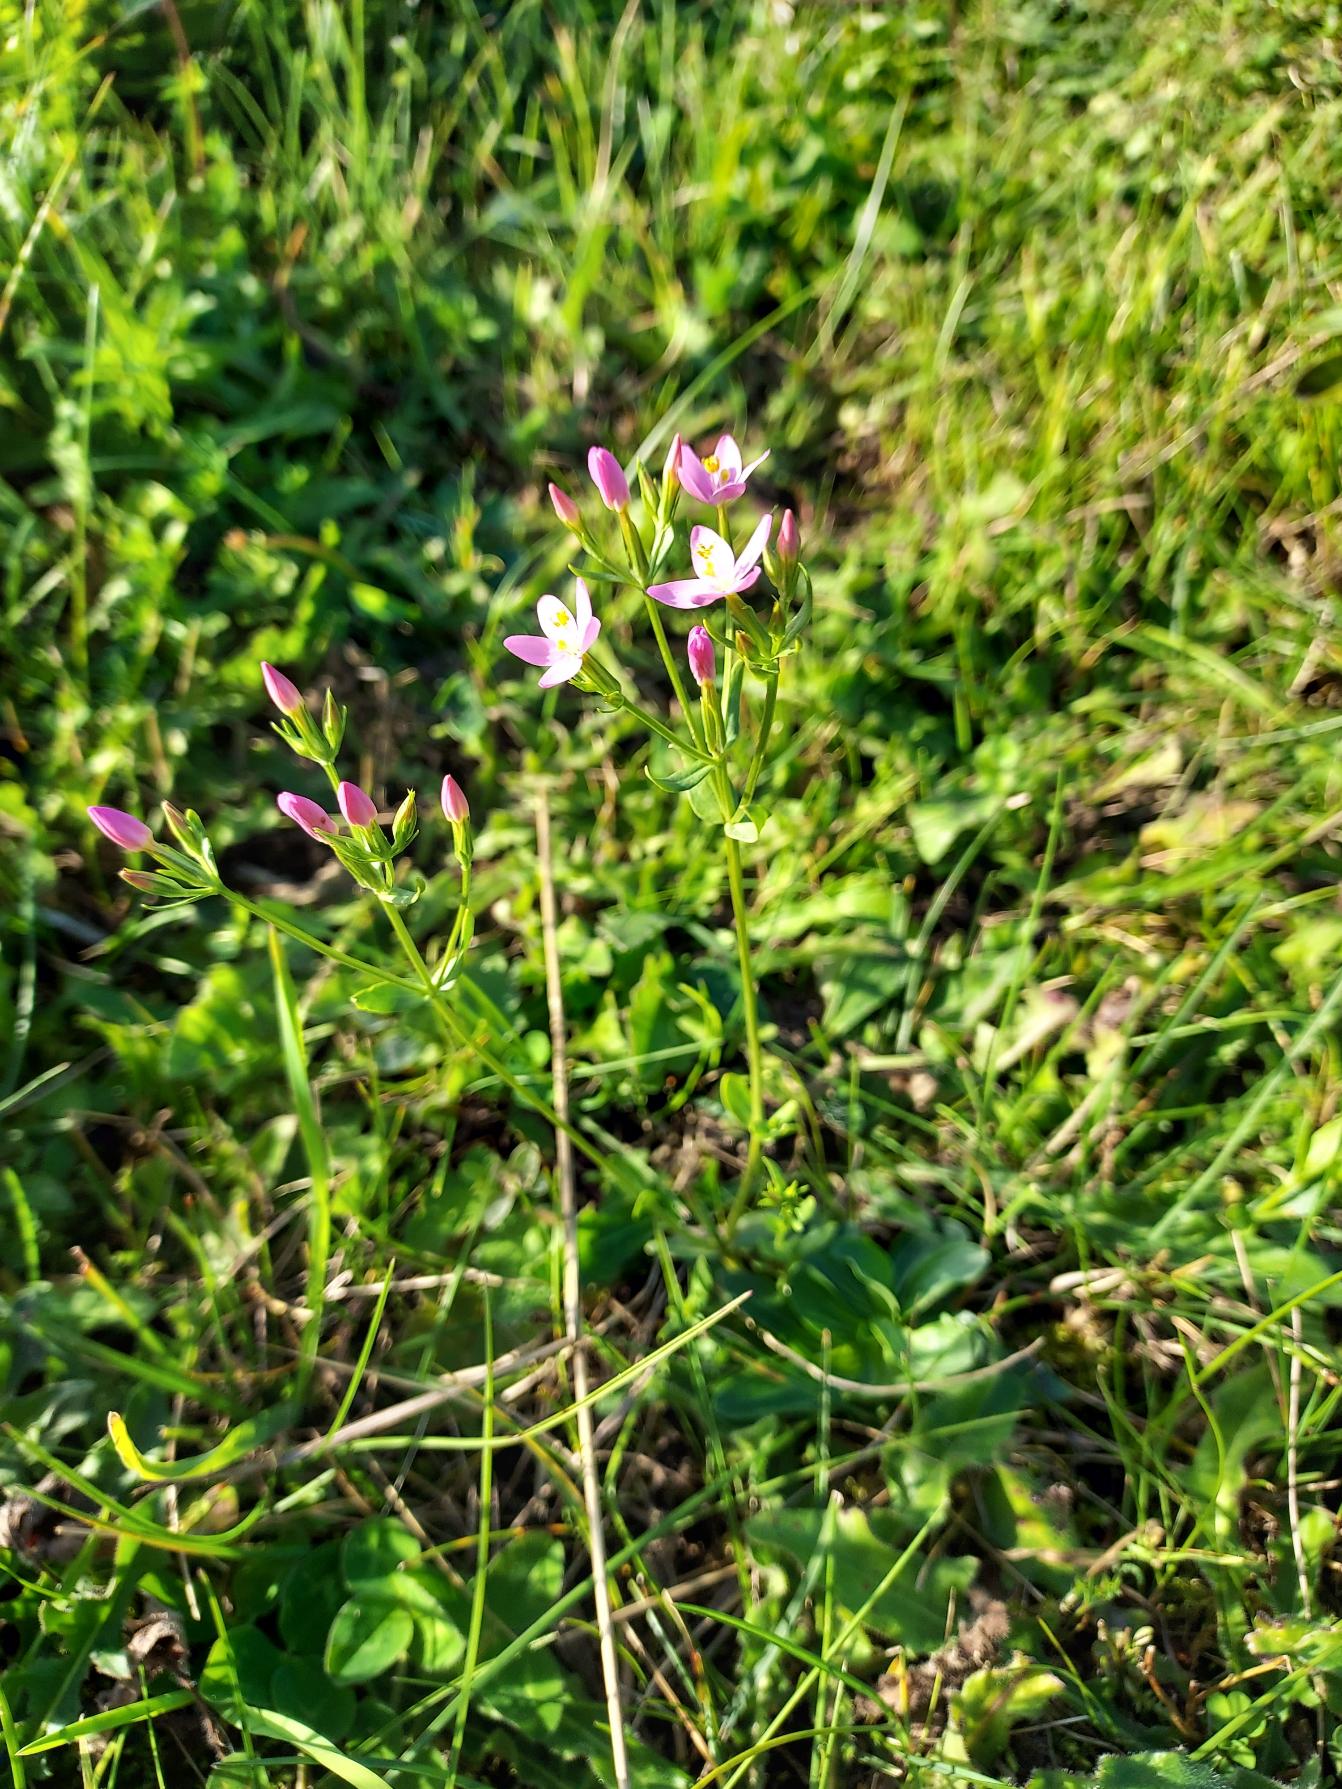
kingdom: Plantae
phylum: Tracheophyta
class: Magnoliopsida
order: Gentianales
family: Gentianaceae
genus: Centaurium
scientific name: Centaurium erythraea
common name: Mark-tusindgylden
